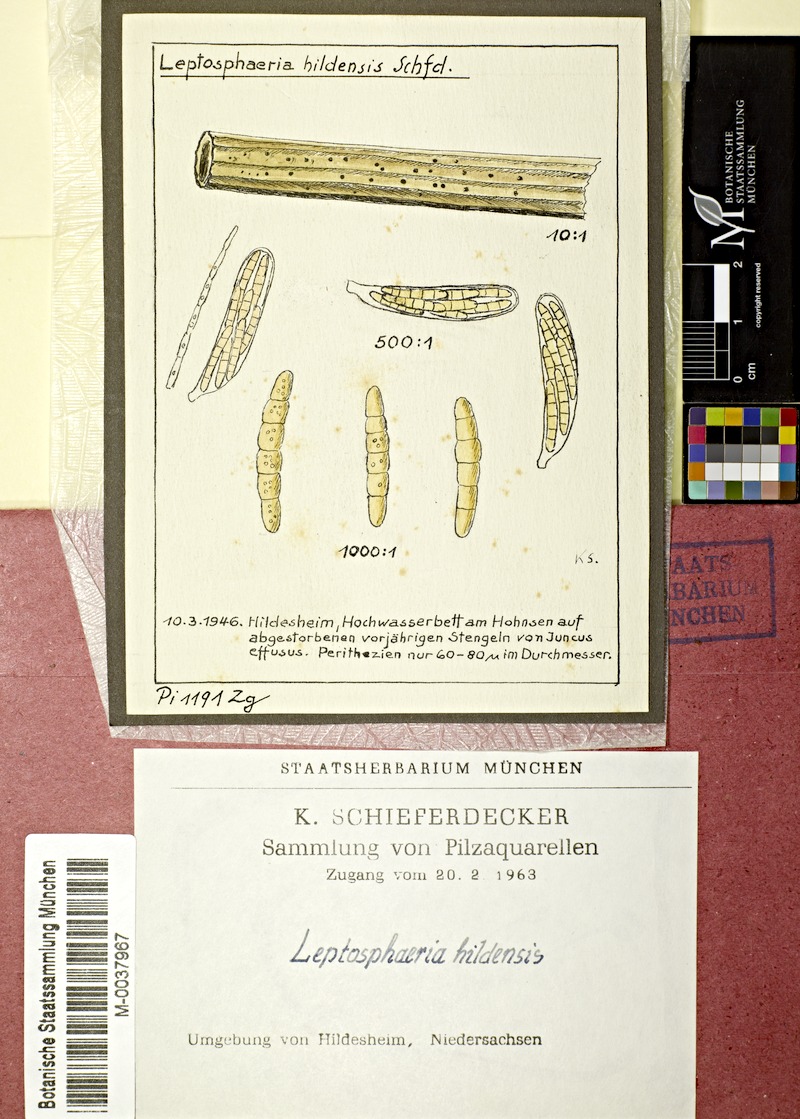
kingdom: Plantae
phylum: Tracheophyta
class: Liliopsida
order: Poales
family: Juncaceae
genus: Juncus
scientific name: Juncus effusus
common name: Soft rush
